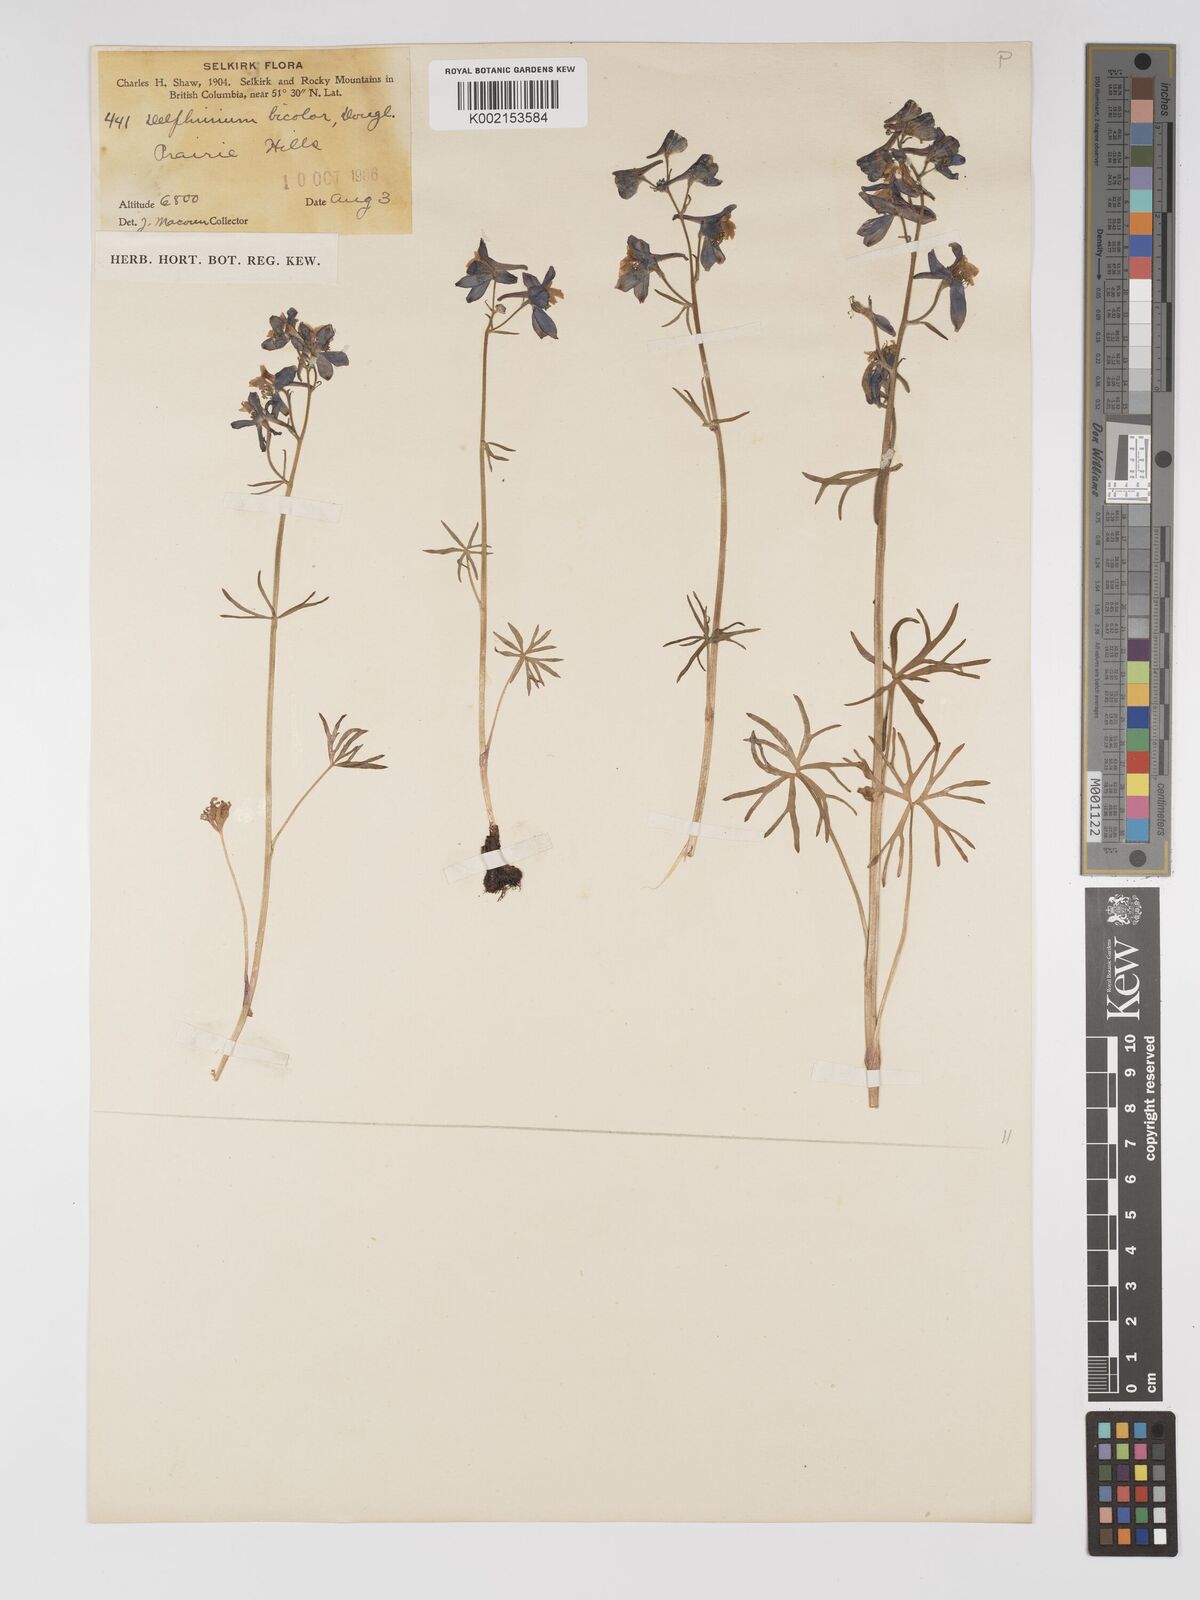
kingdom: Plantae
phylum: Tracheophyta
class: Magnoliopsida
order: Ranunculales
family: Ranunculaceae
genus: Delphinium
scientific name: Delphinium bicolor
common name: Low larkspur
